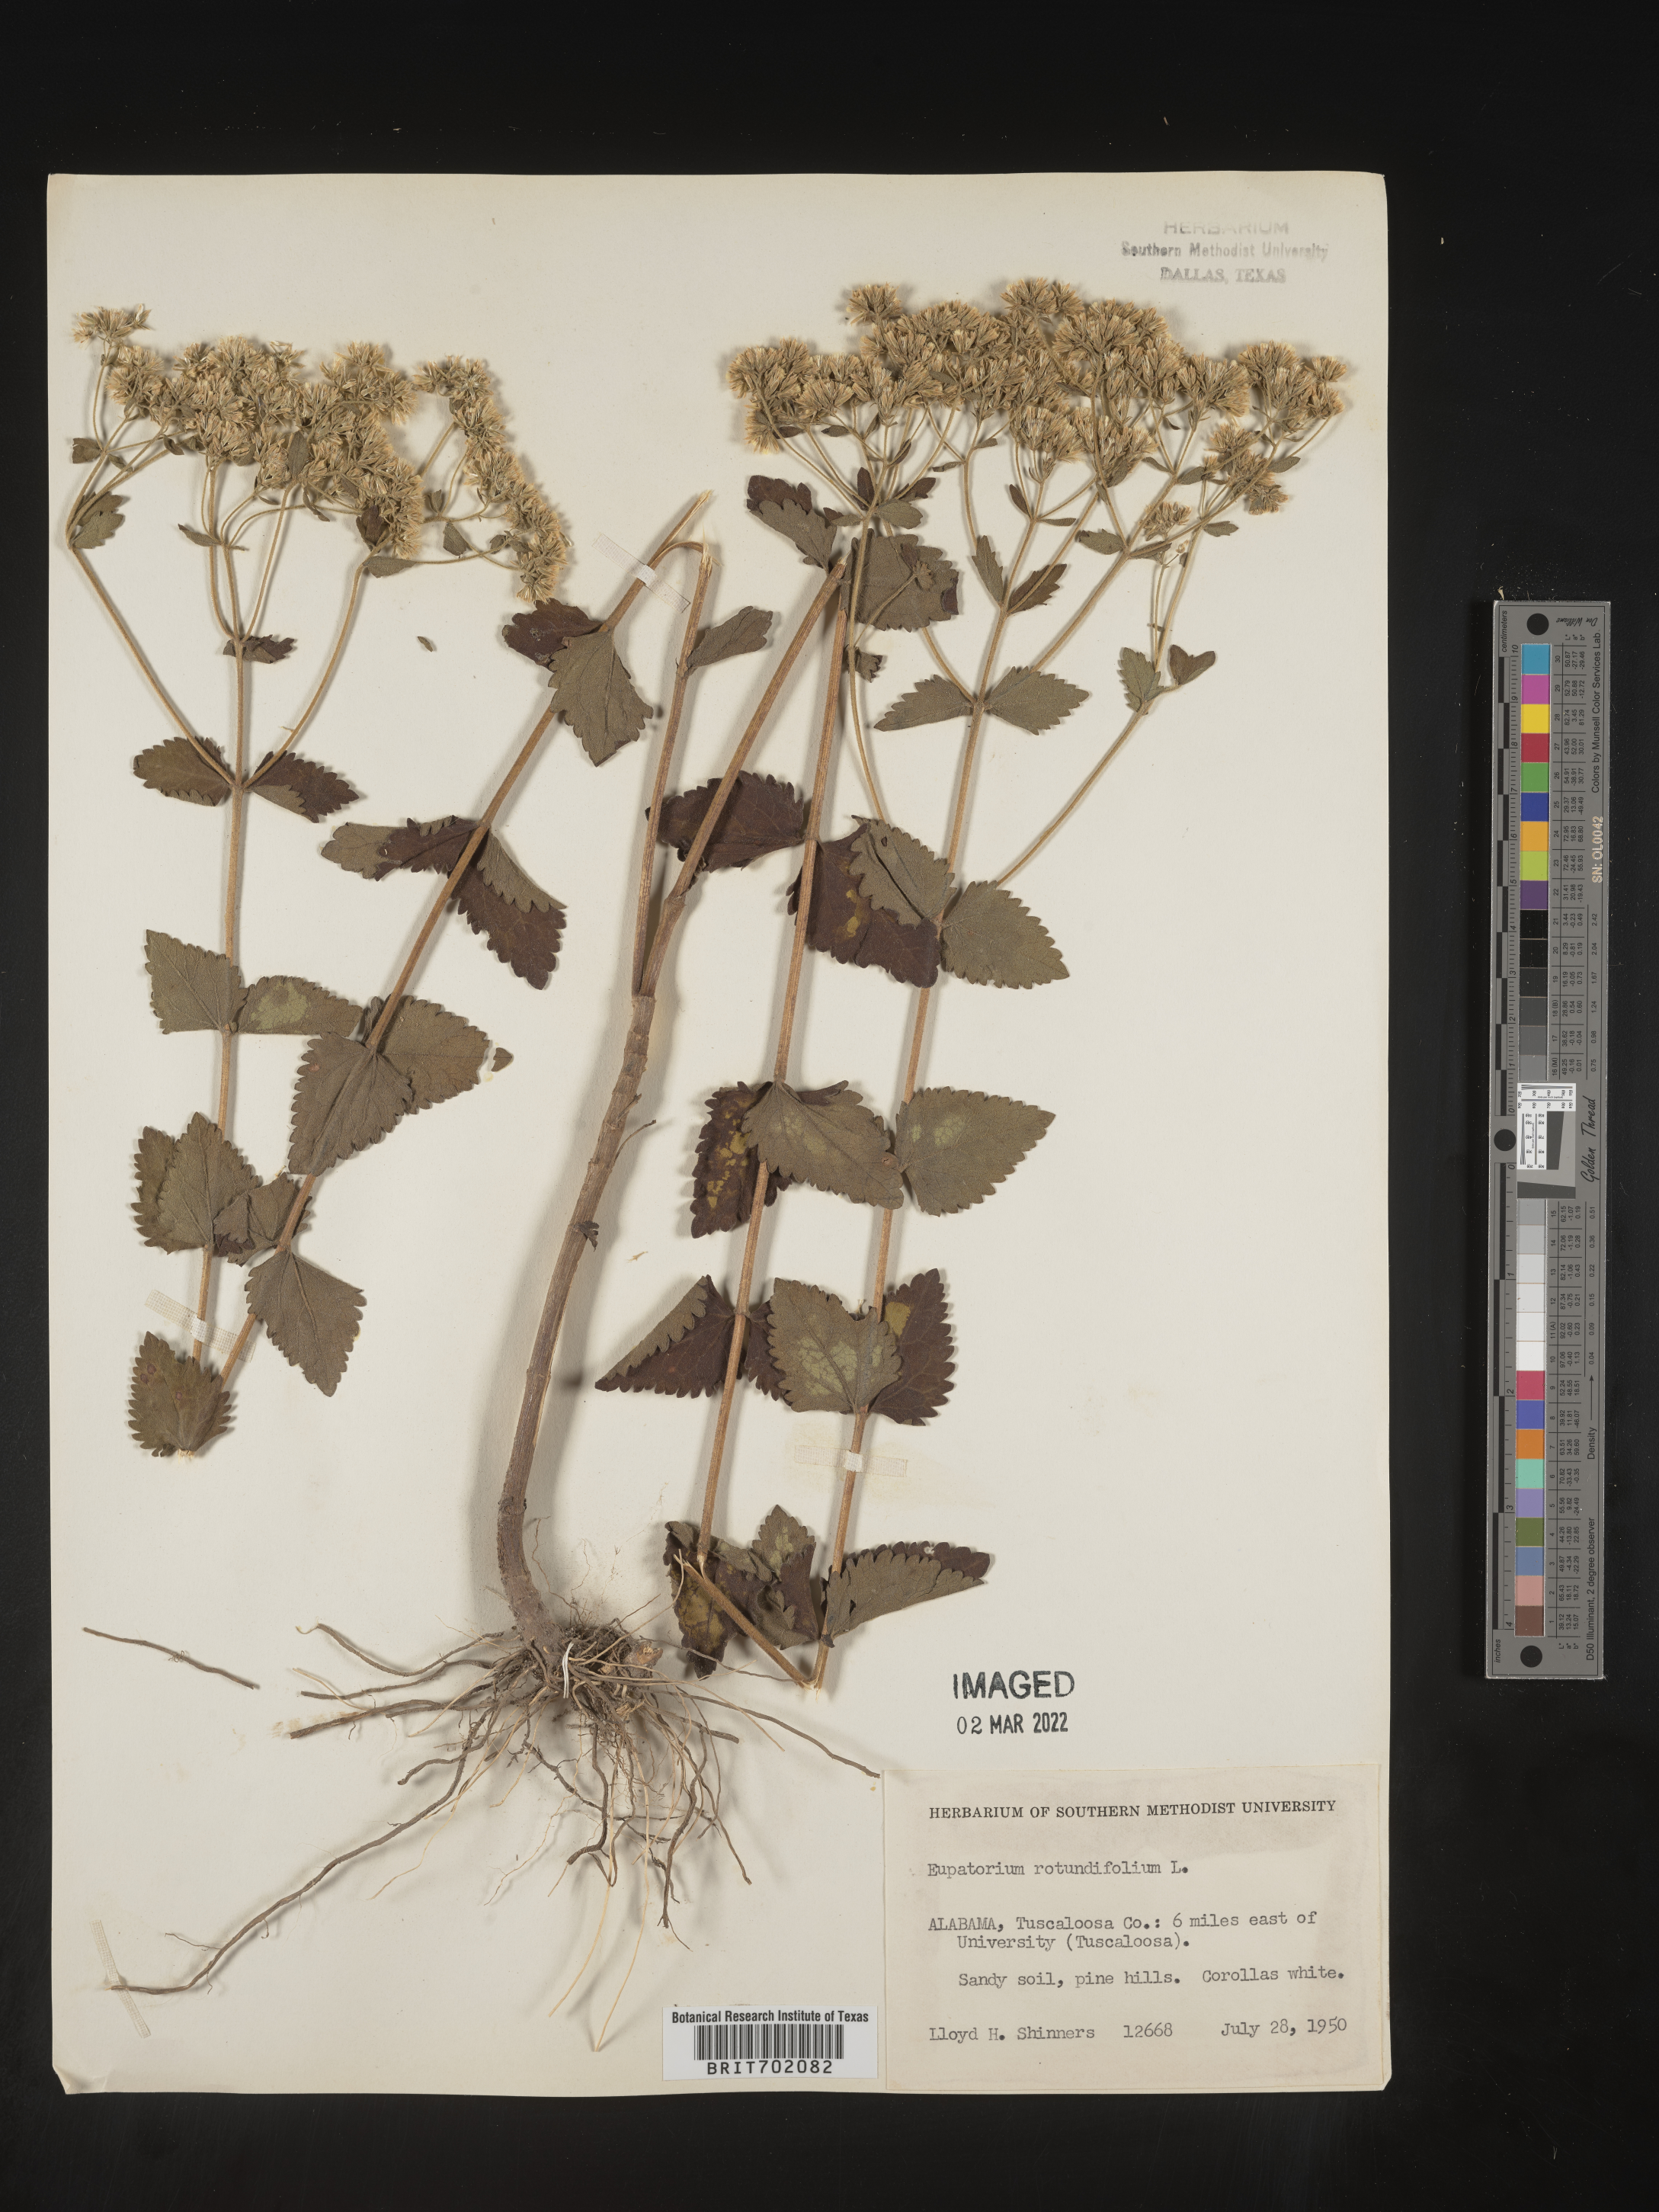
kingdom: Plantae
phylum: Tracheophyta
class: Magnoliopsida
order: Asterales
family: Asteraceae
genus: Eupatorium
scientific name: Eupatorium rotundifolium
